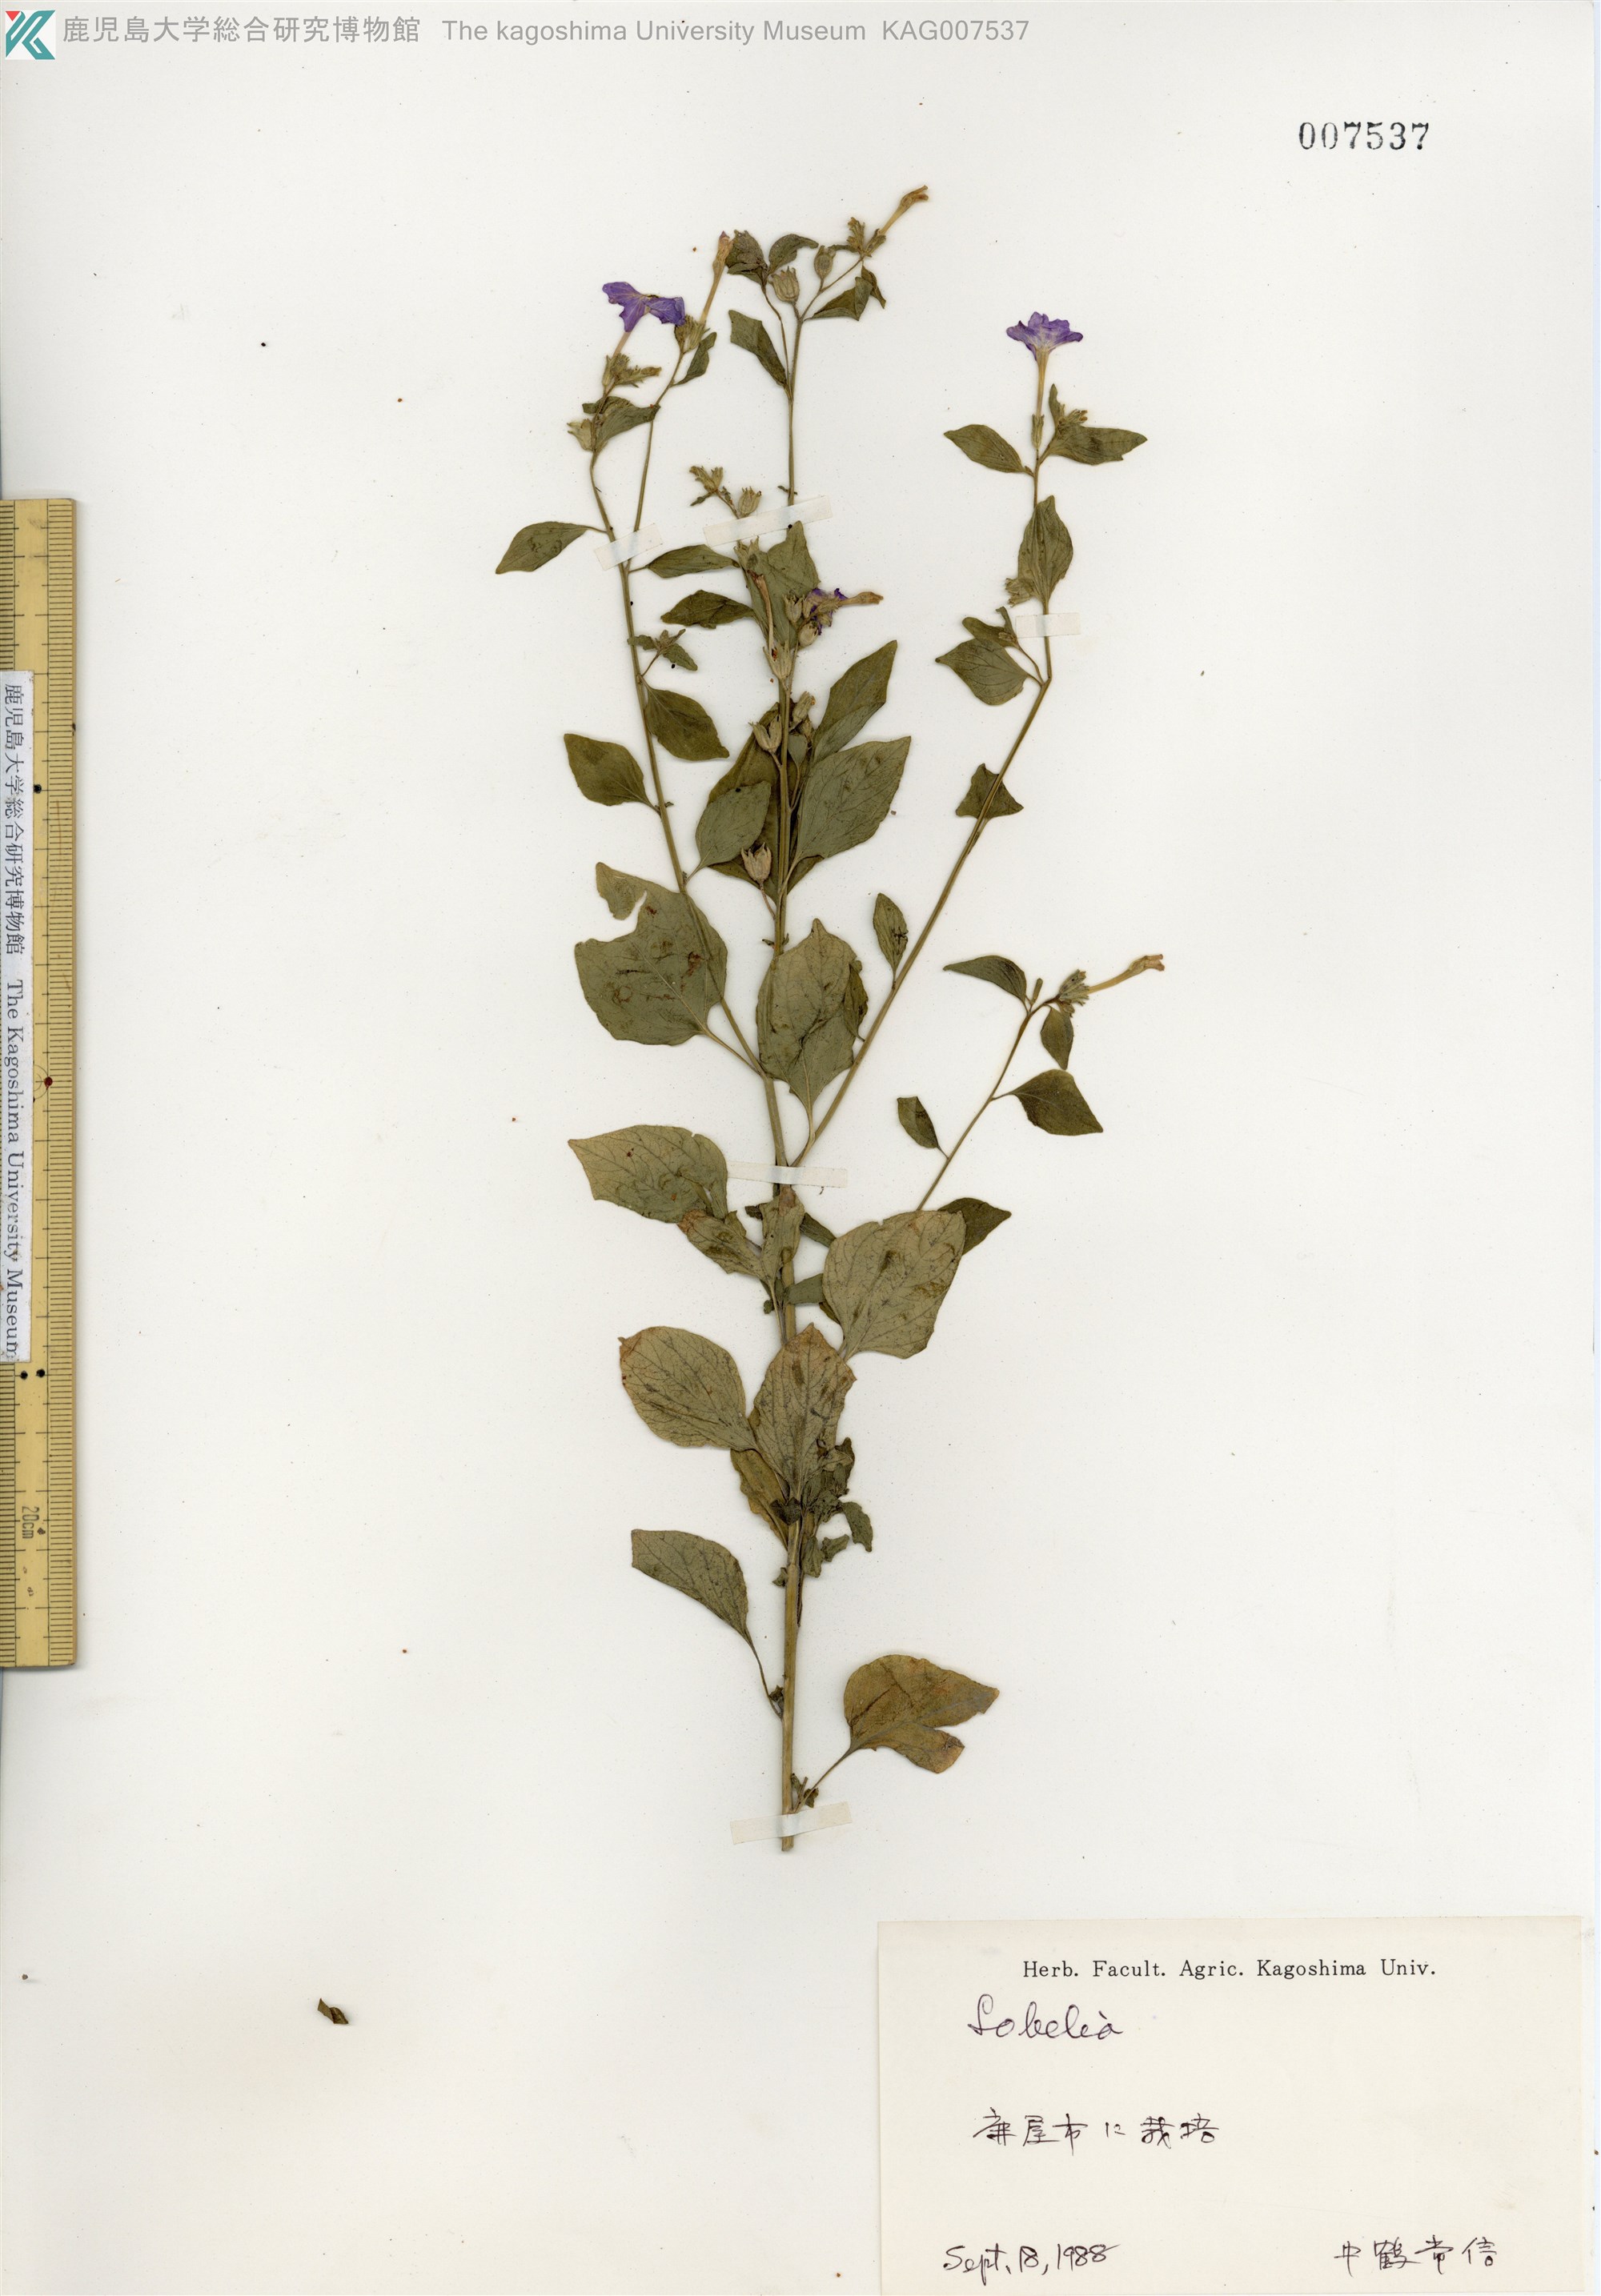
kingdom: Plantae
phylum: Tracheophyta
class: Magnoliopsida
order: Asterales
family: Campanulaceae
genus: Lobelia
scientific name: Lobelia
